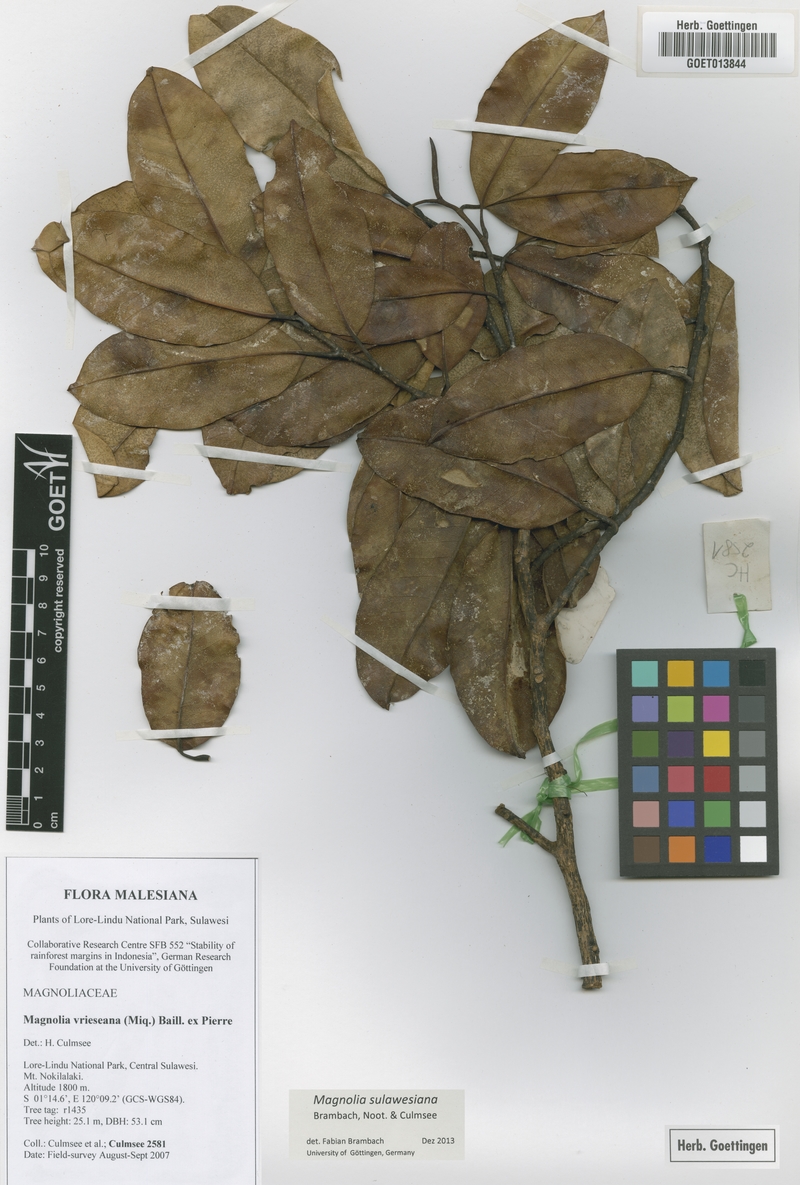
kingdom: Plantae
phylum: Tracheophyta
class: Magnoliopsida
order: Magnoliales
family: Magnoliaceae
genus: Magnolia
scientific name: Magnolia sulawesiana
